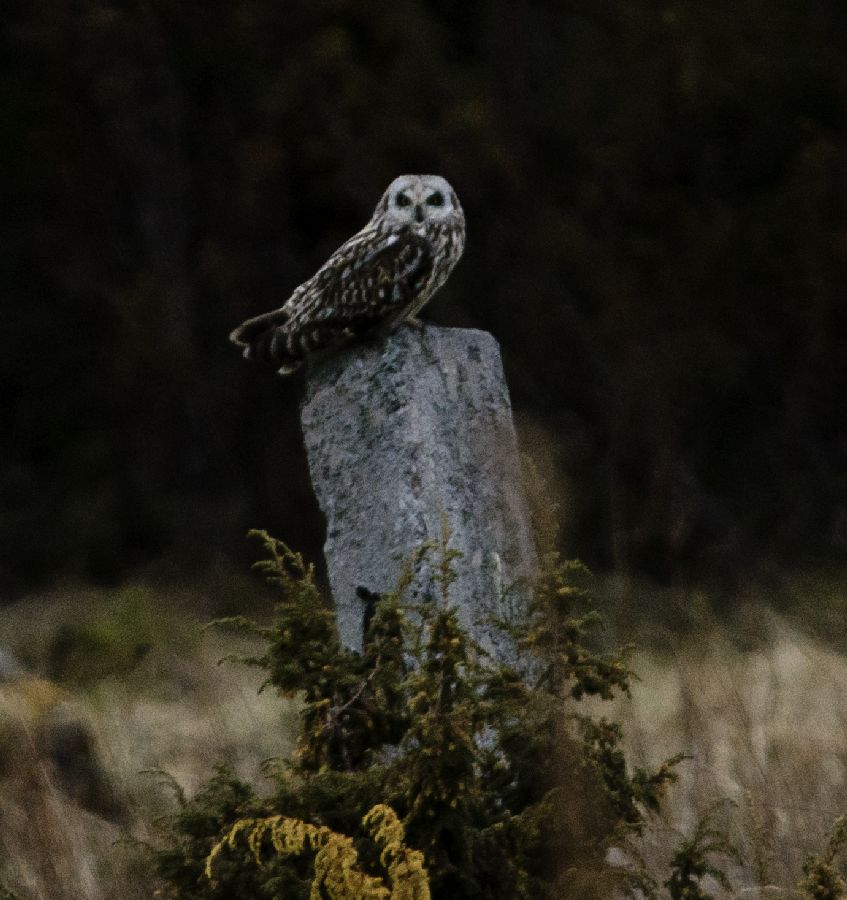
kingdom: Animalia
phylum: Chordata
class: Aves
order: Strigiformes
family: Strigidae
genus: Asio
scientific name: Asio flammeus
